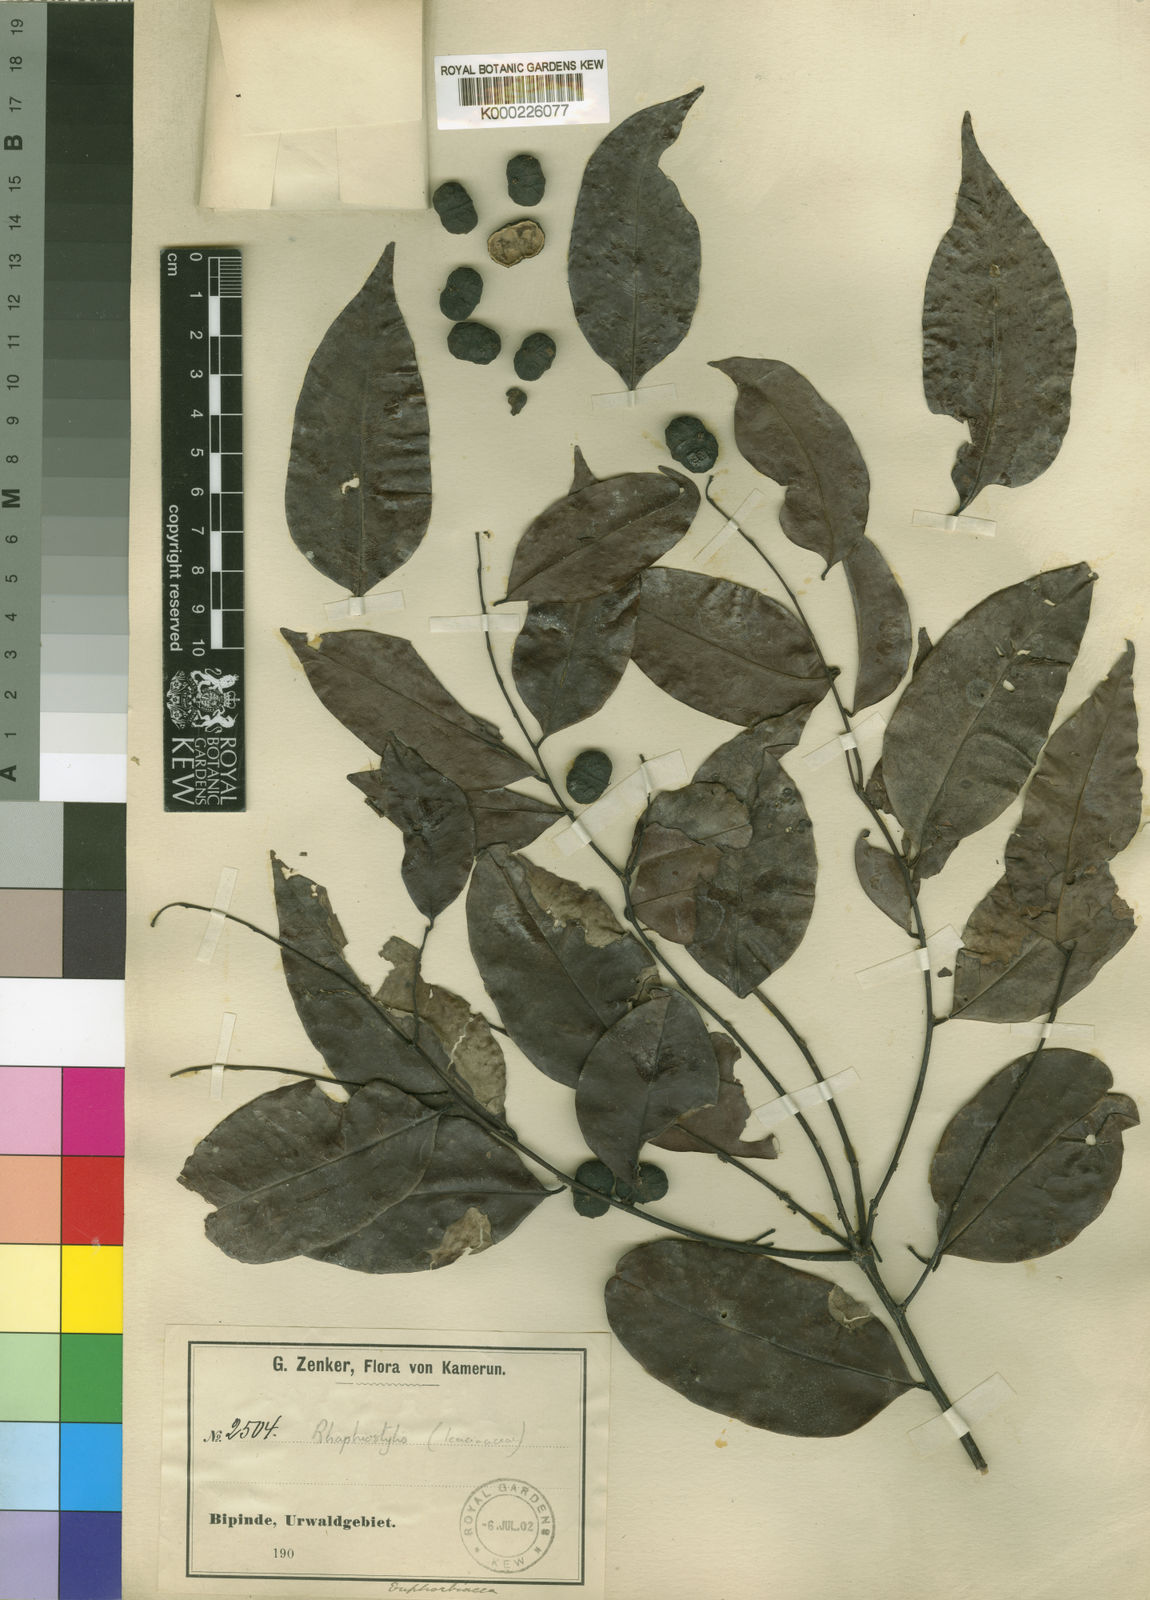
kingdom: Plantae
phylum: Tracheophyta
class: Magnoliopsida
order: Metteniusales
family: Metteniusaceae
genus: Rhaphiostylis
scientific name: Rhaphiostylis beninensis
